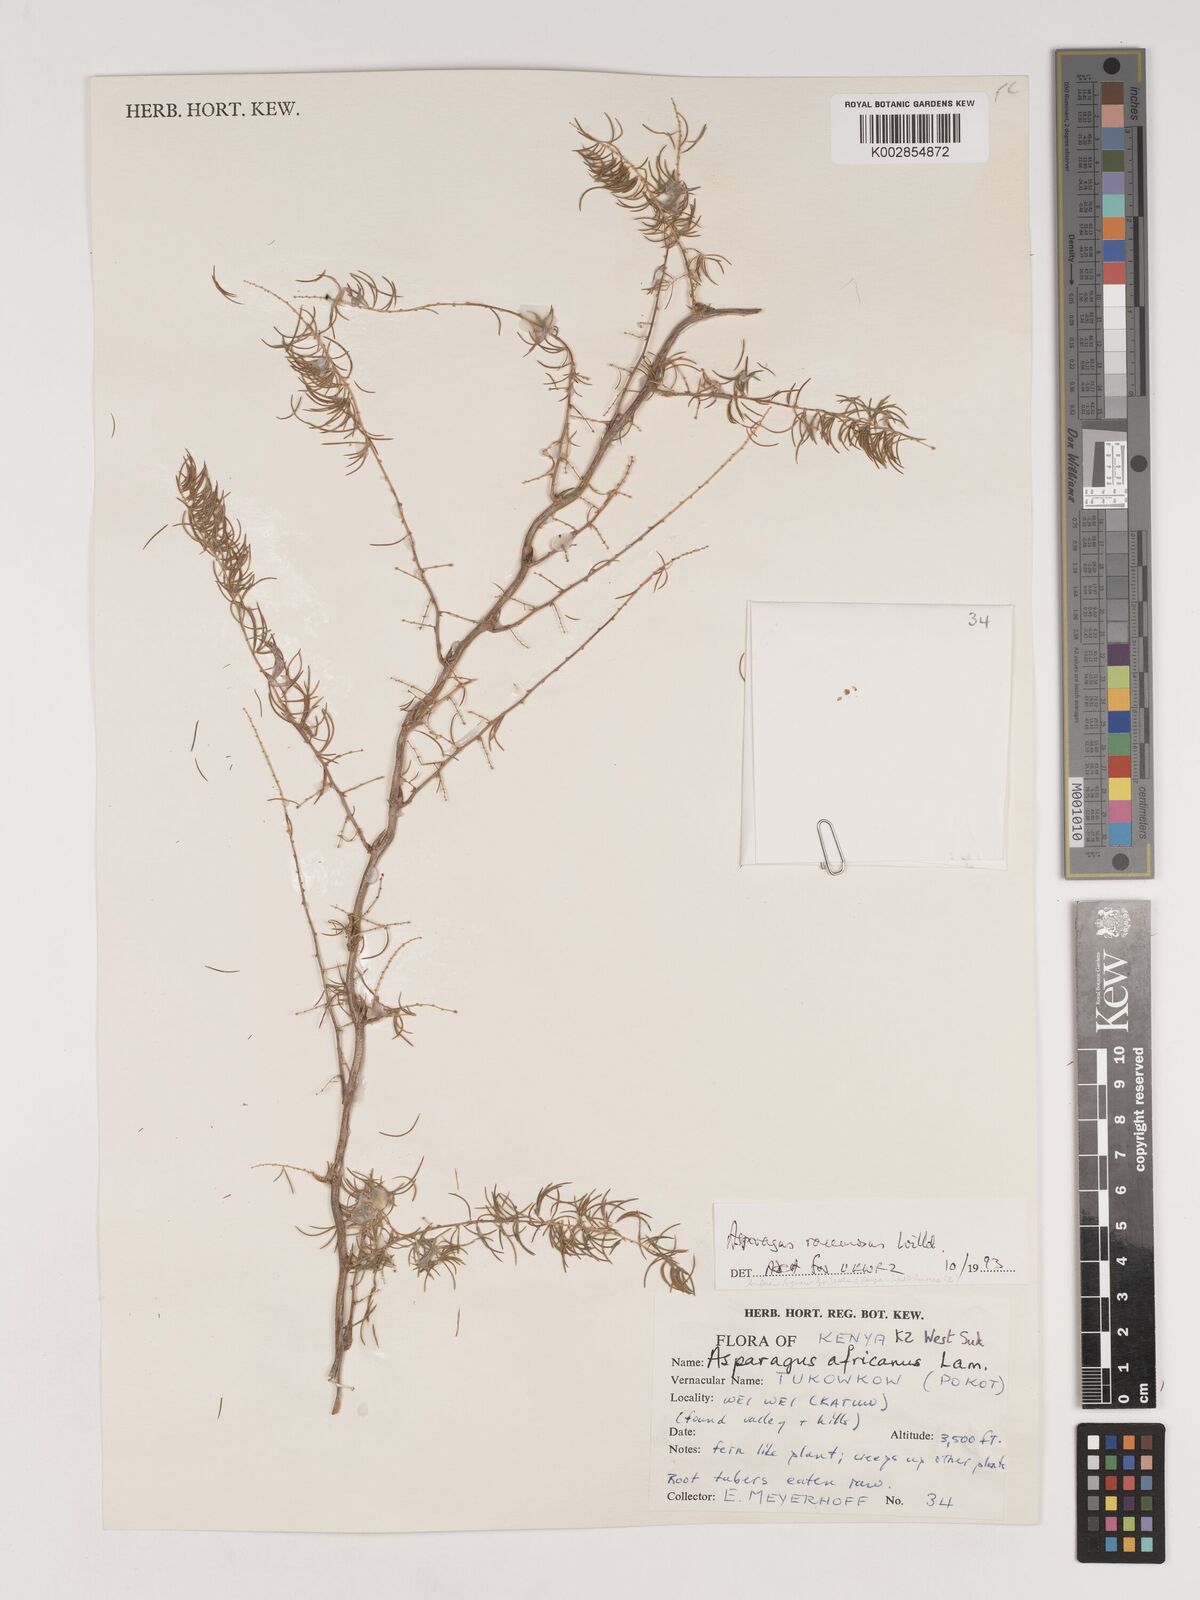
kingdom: Plantae
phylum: Tracheophyta
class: Liliopsida
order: Asparagales
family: Asparagaceae
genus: Asparagus
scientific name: Asparagus racemosus
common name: Asparagus-fern
